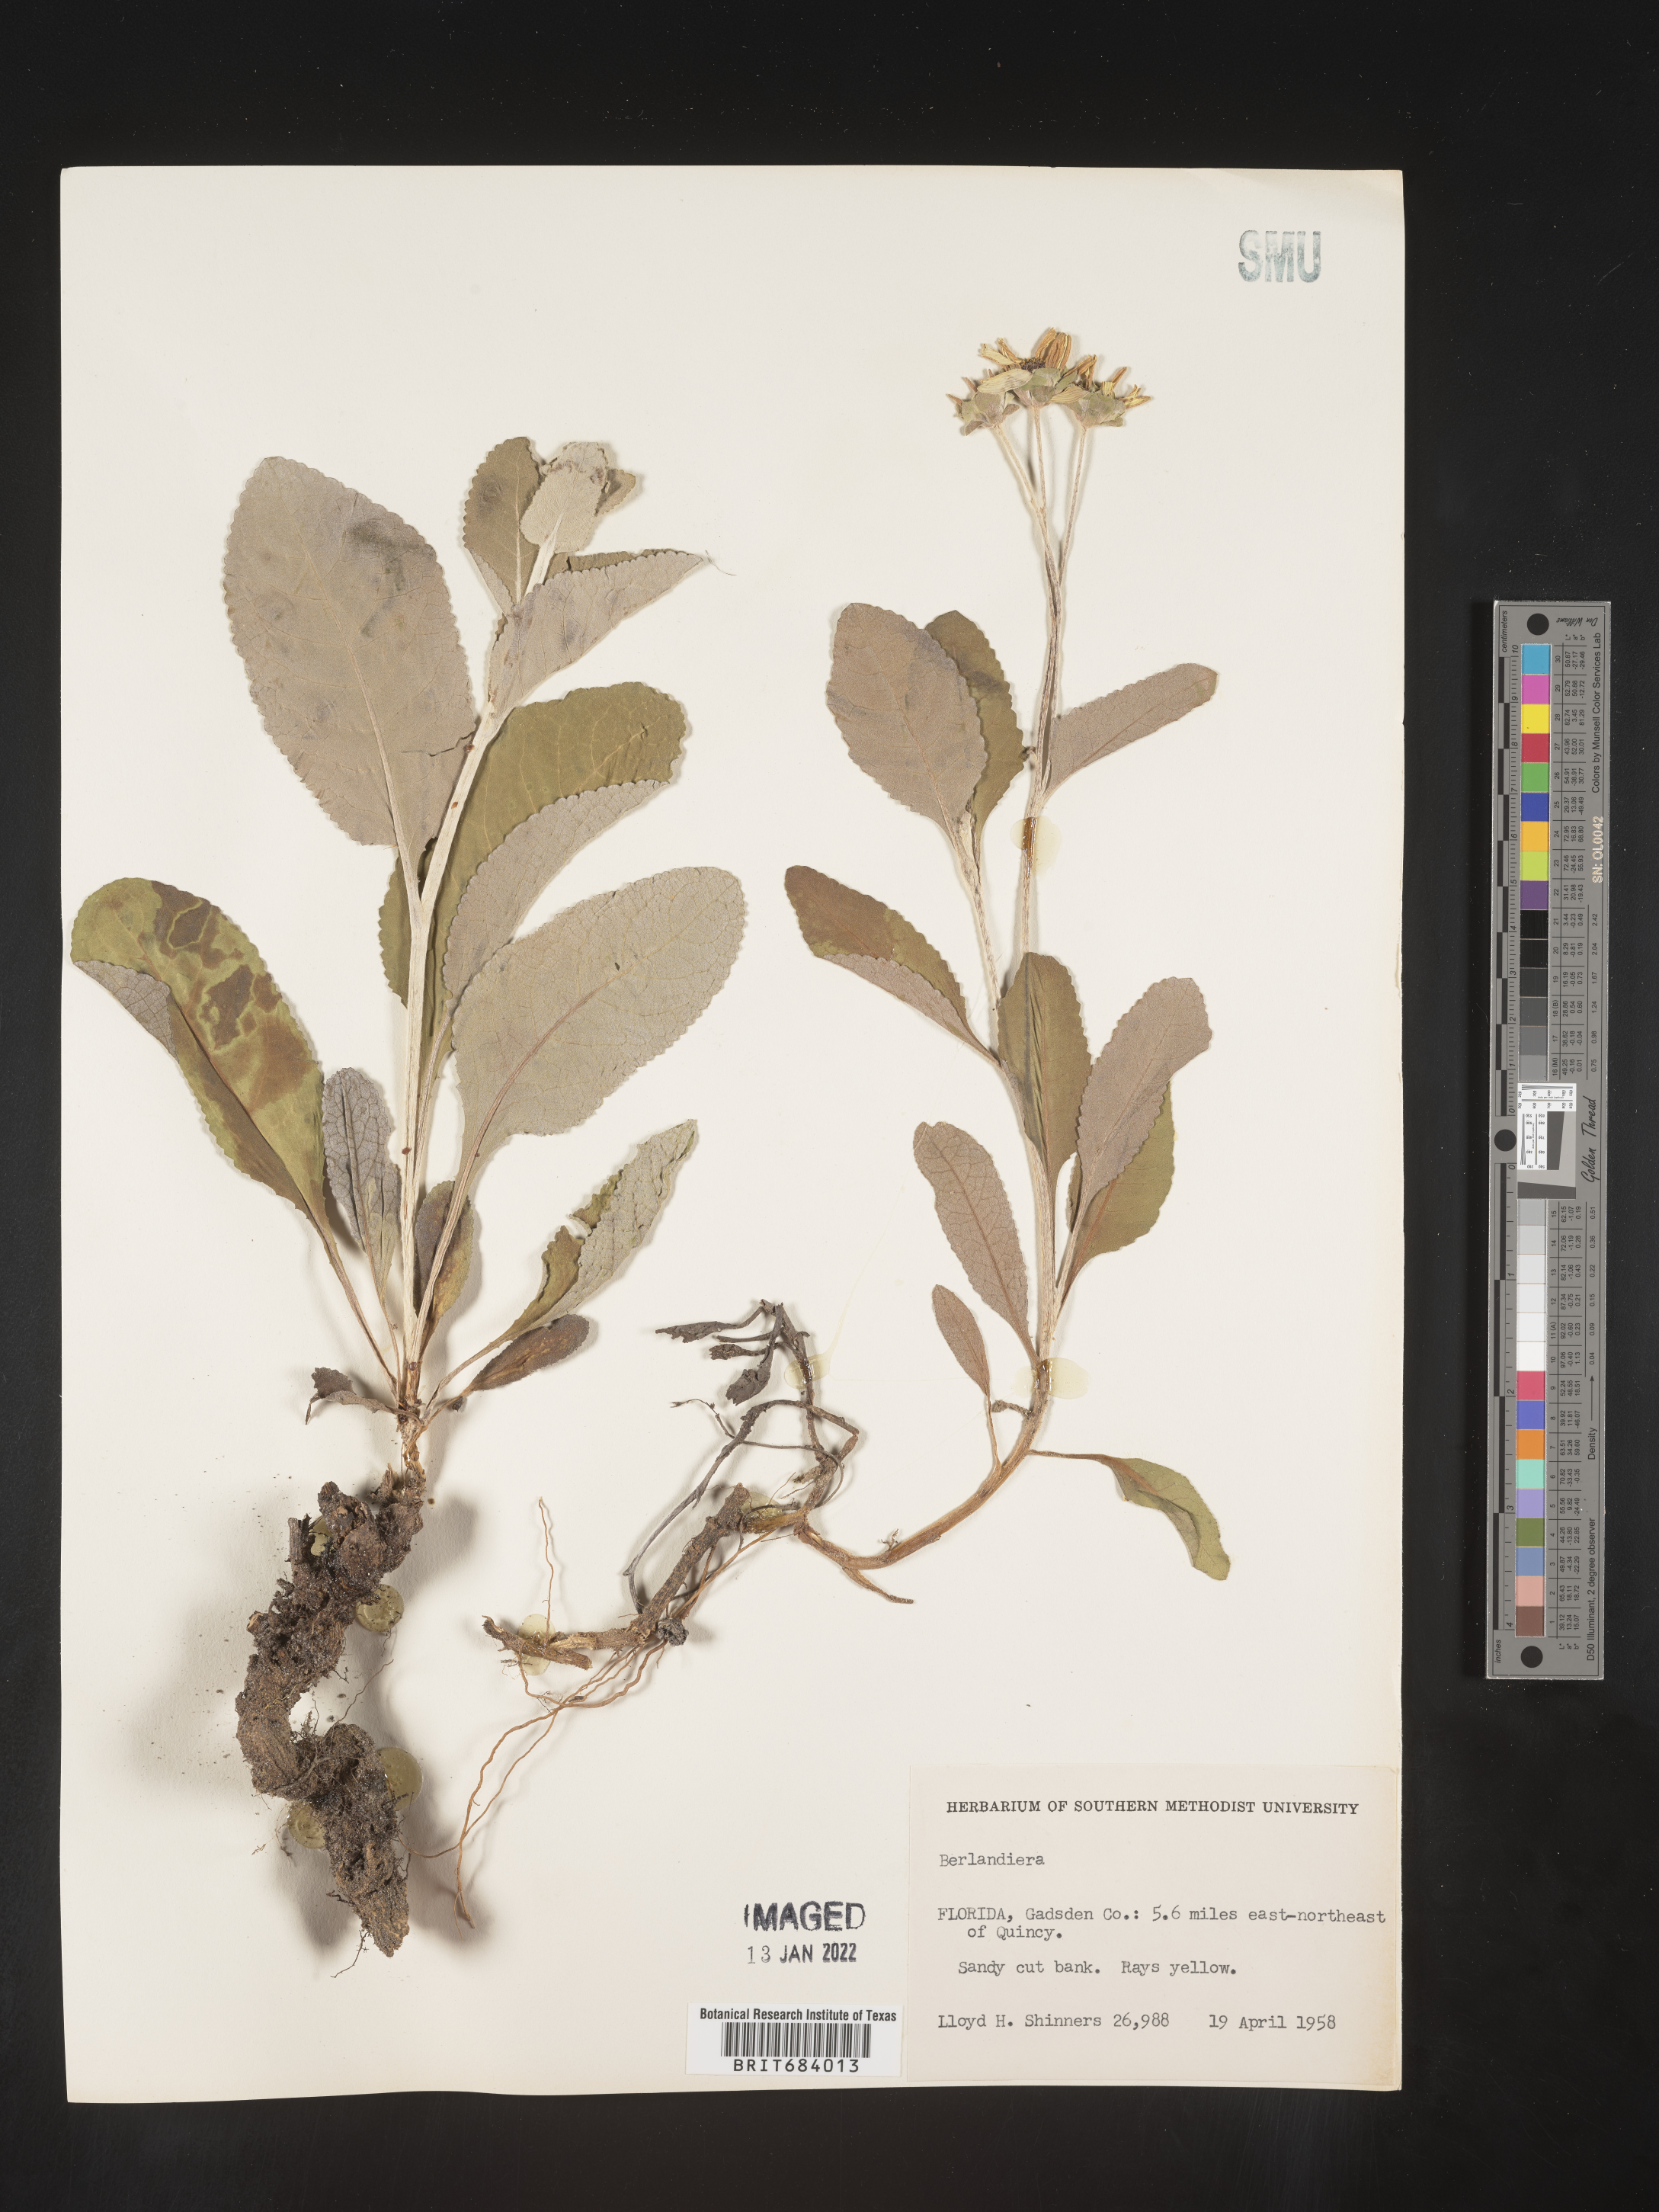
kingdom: Plantae
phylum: Tracheophyta
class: Magnoliopsida
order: Asterales
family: Asteraceae
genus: Berlandiera
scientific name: Berlandiera pumila
